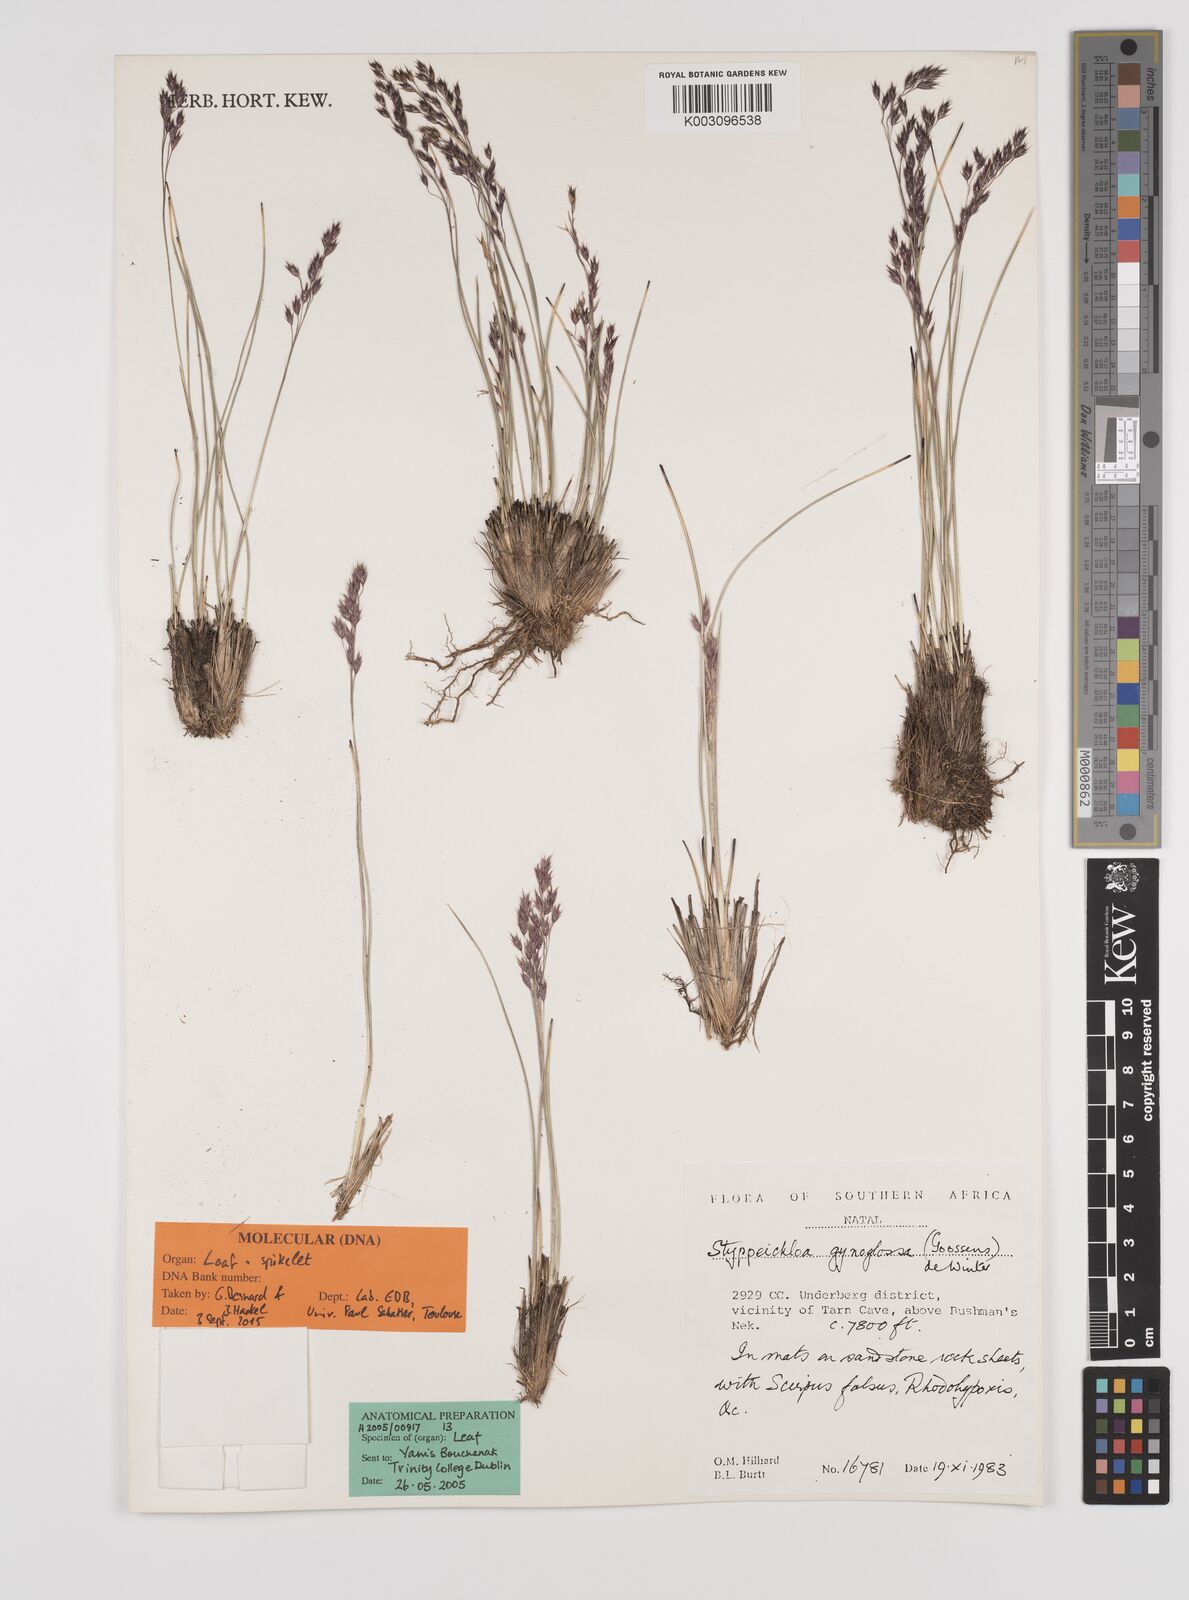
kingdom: Plantae
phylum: Tracheophyta
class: Liliopsida
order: Poales
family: Poaceae
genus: Styppeiochloa
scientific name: Styppeiochloa gynoglossa
